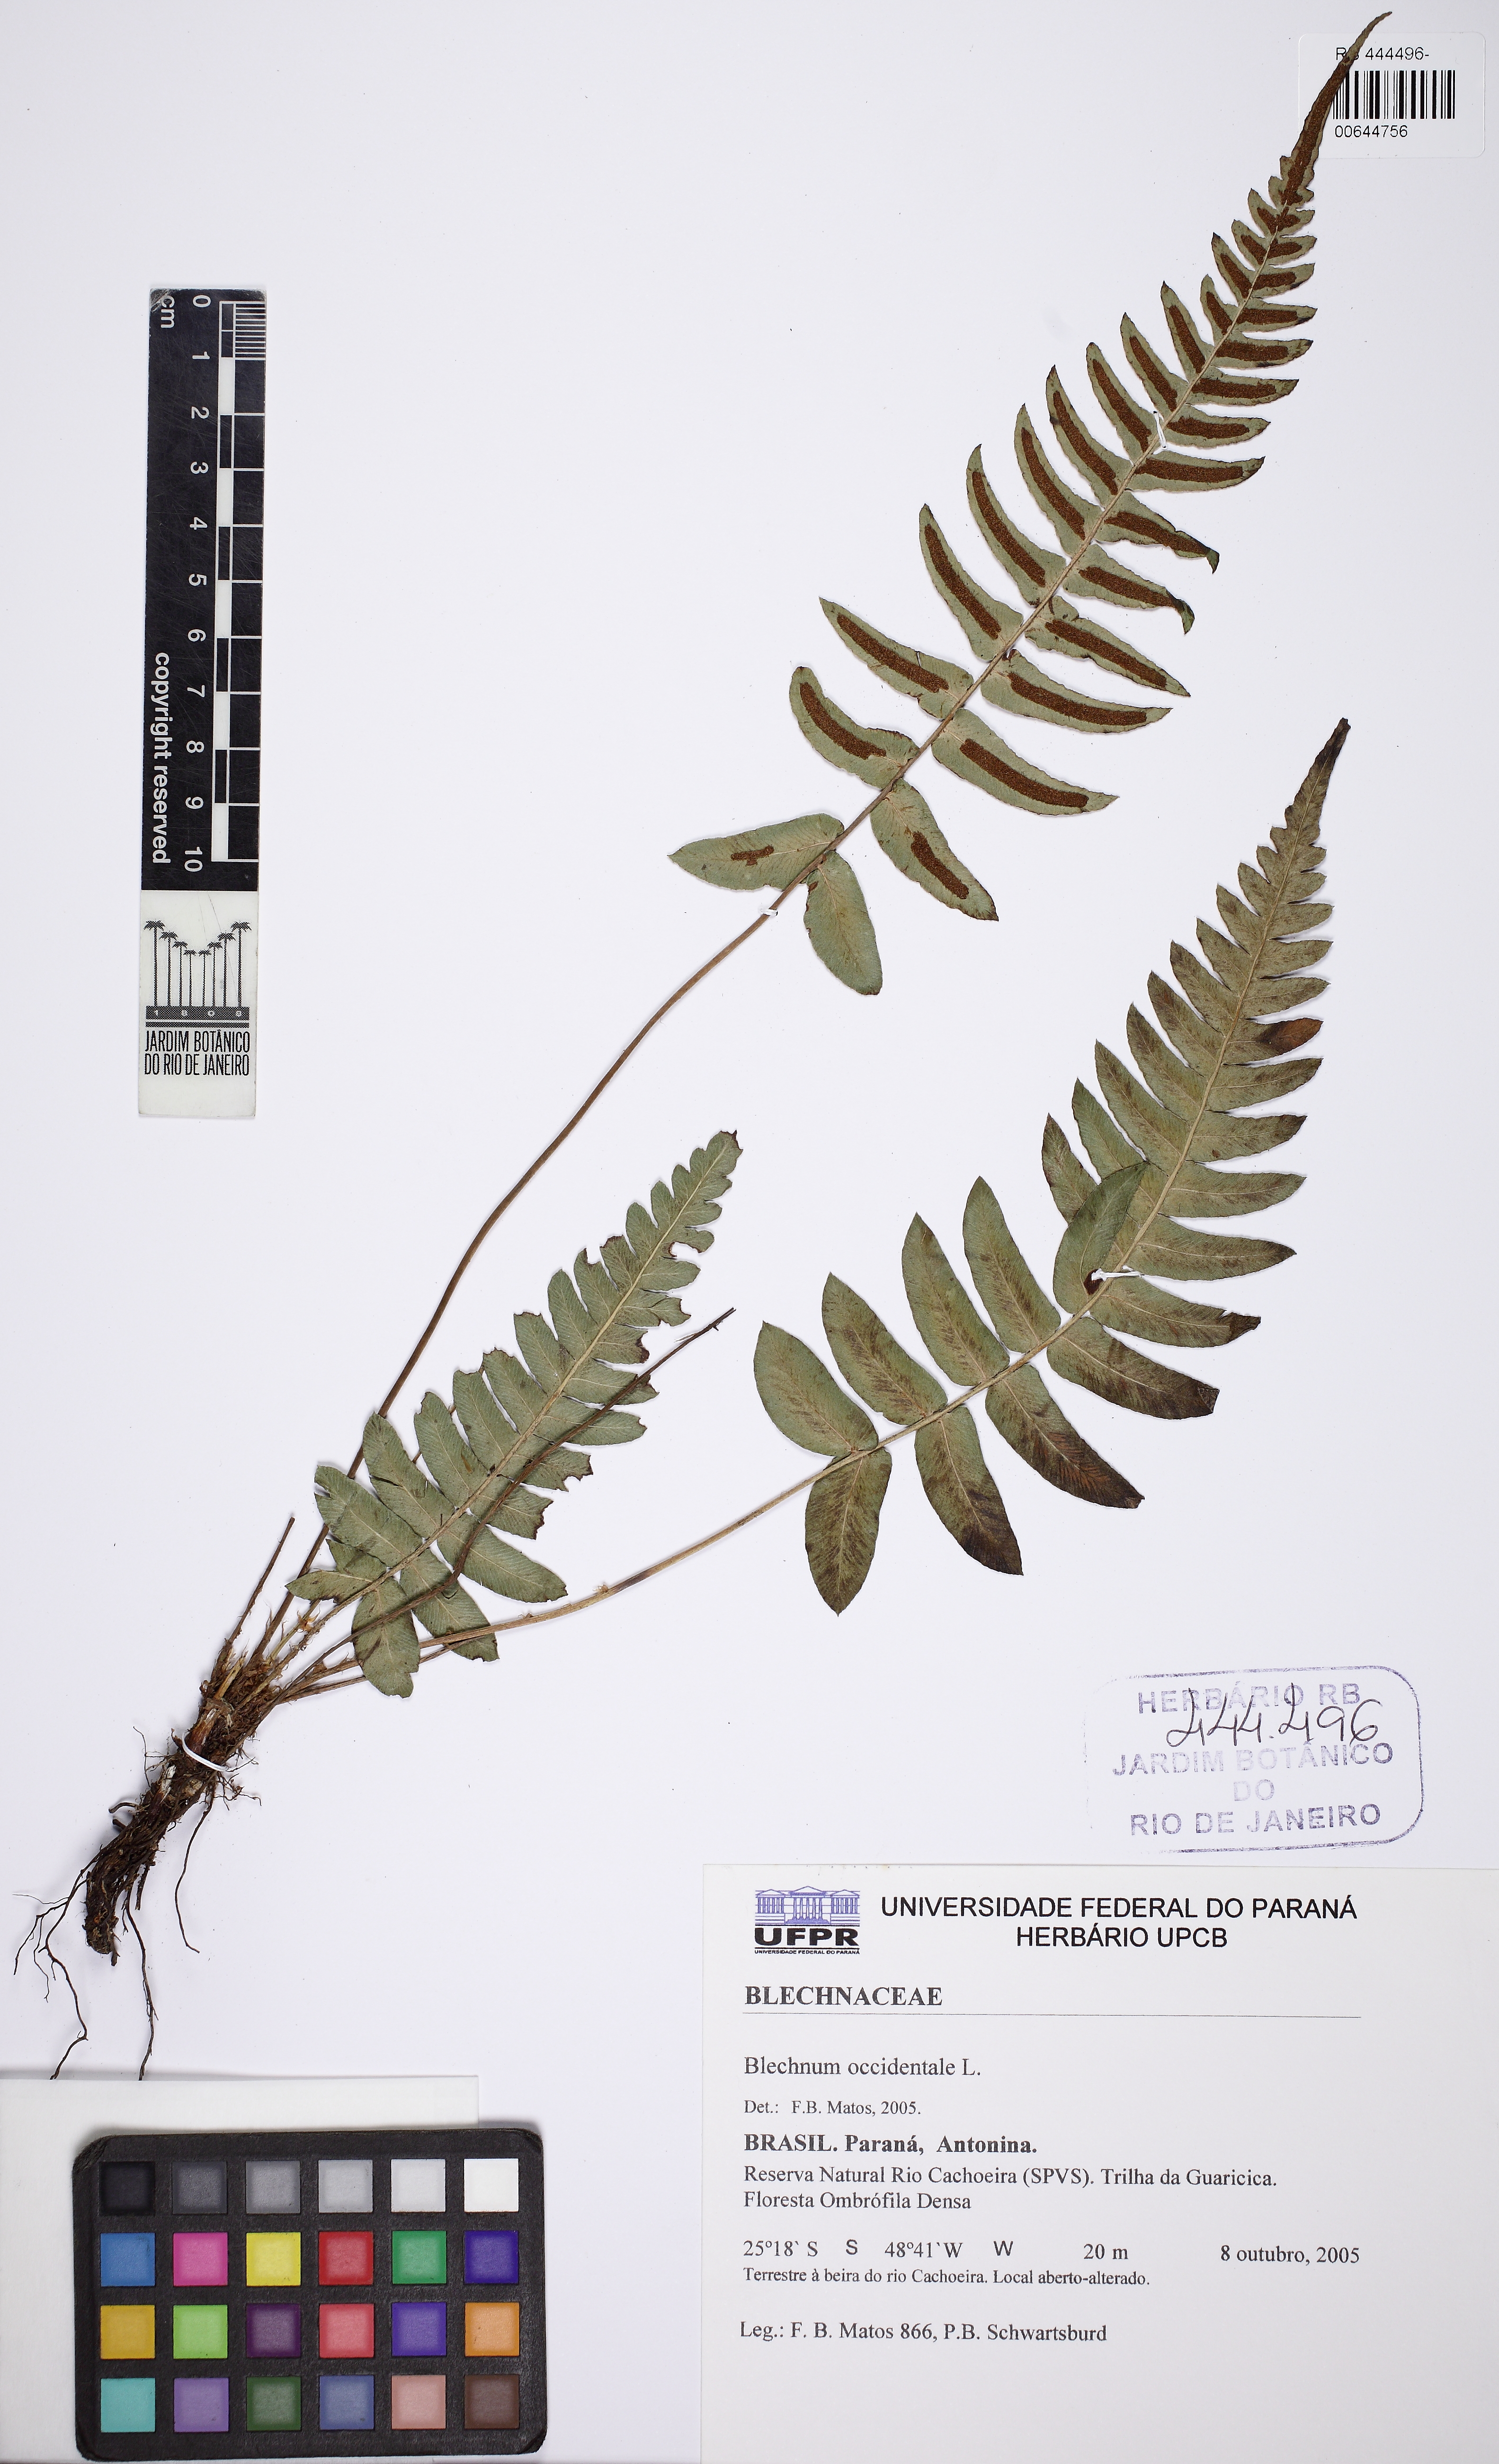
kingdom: Plantae
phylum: Tracheophyta
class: Polypodiopsida
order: Polypodiales
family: Blechnaceae
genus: Blechnum
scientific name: Blechnum occidentale
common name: Hammock fern
